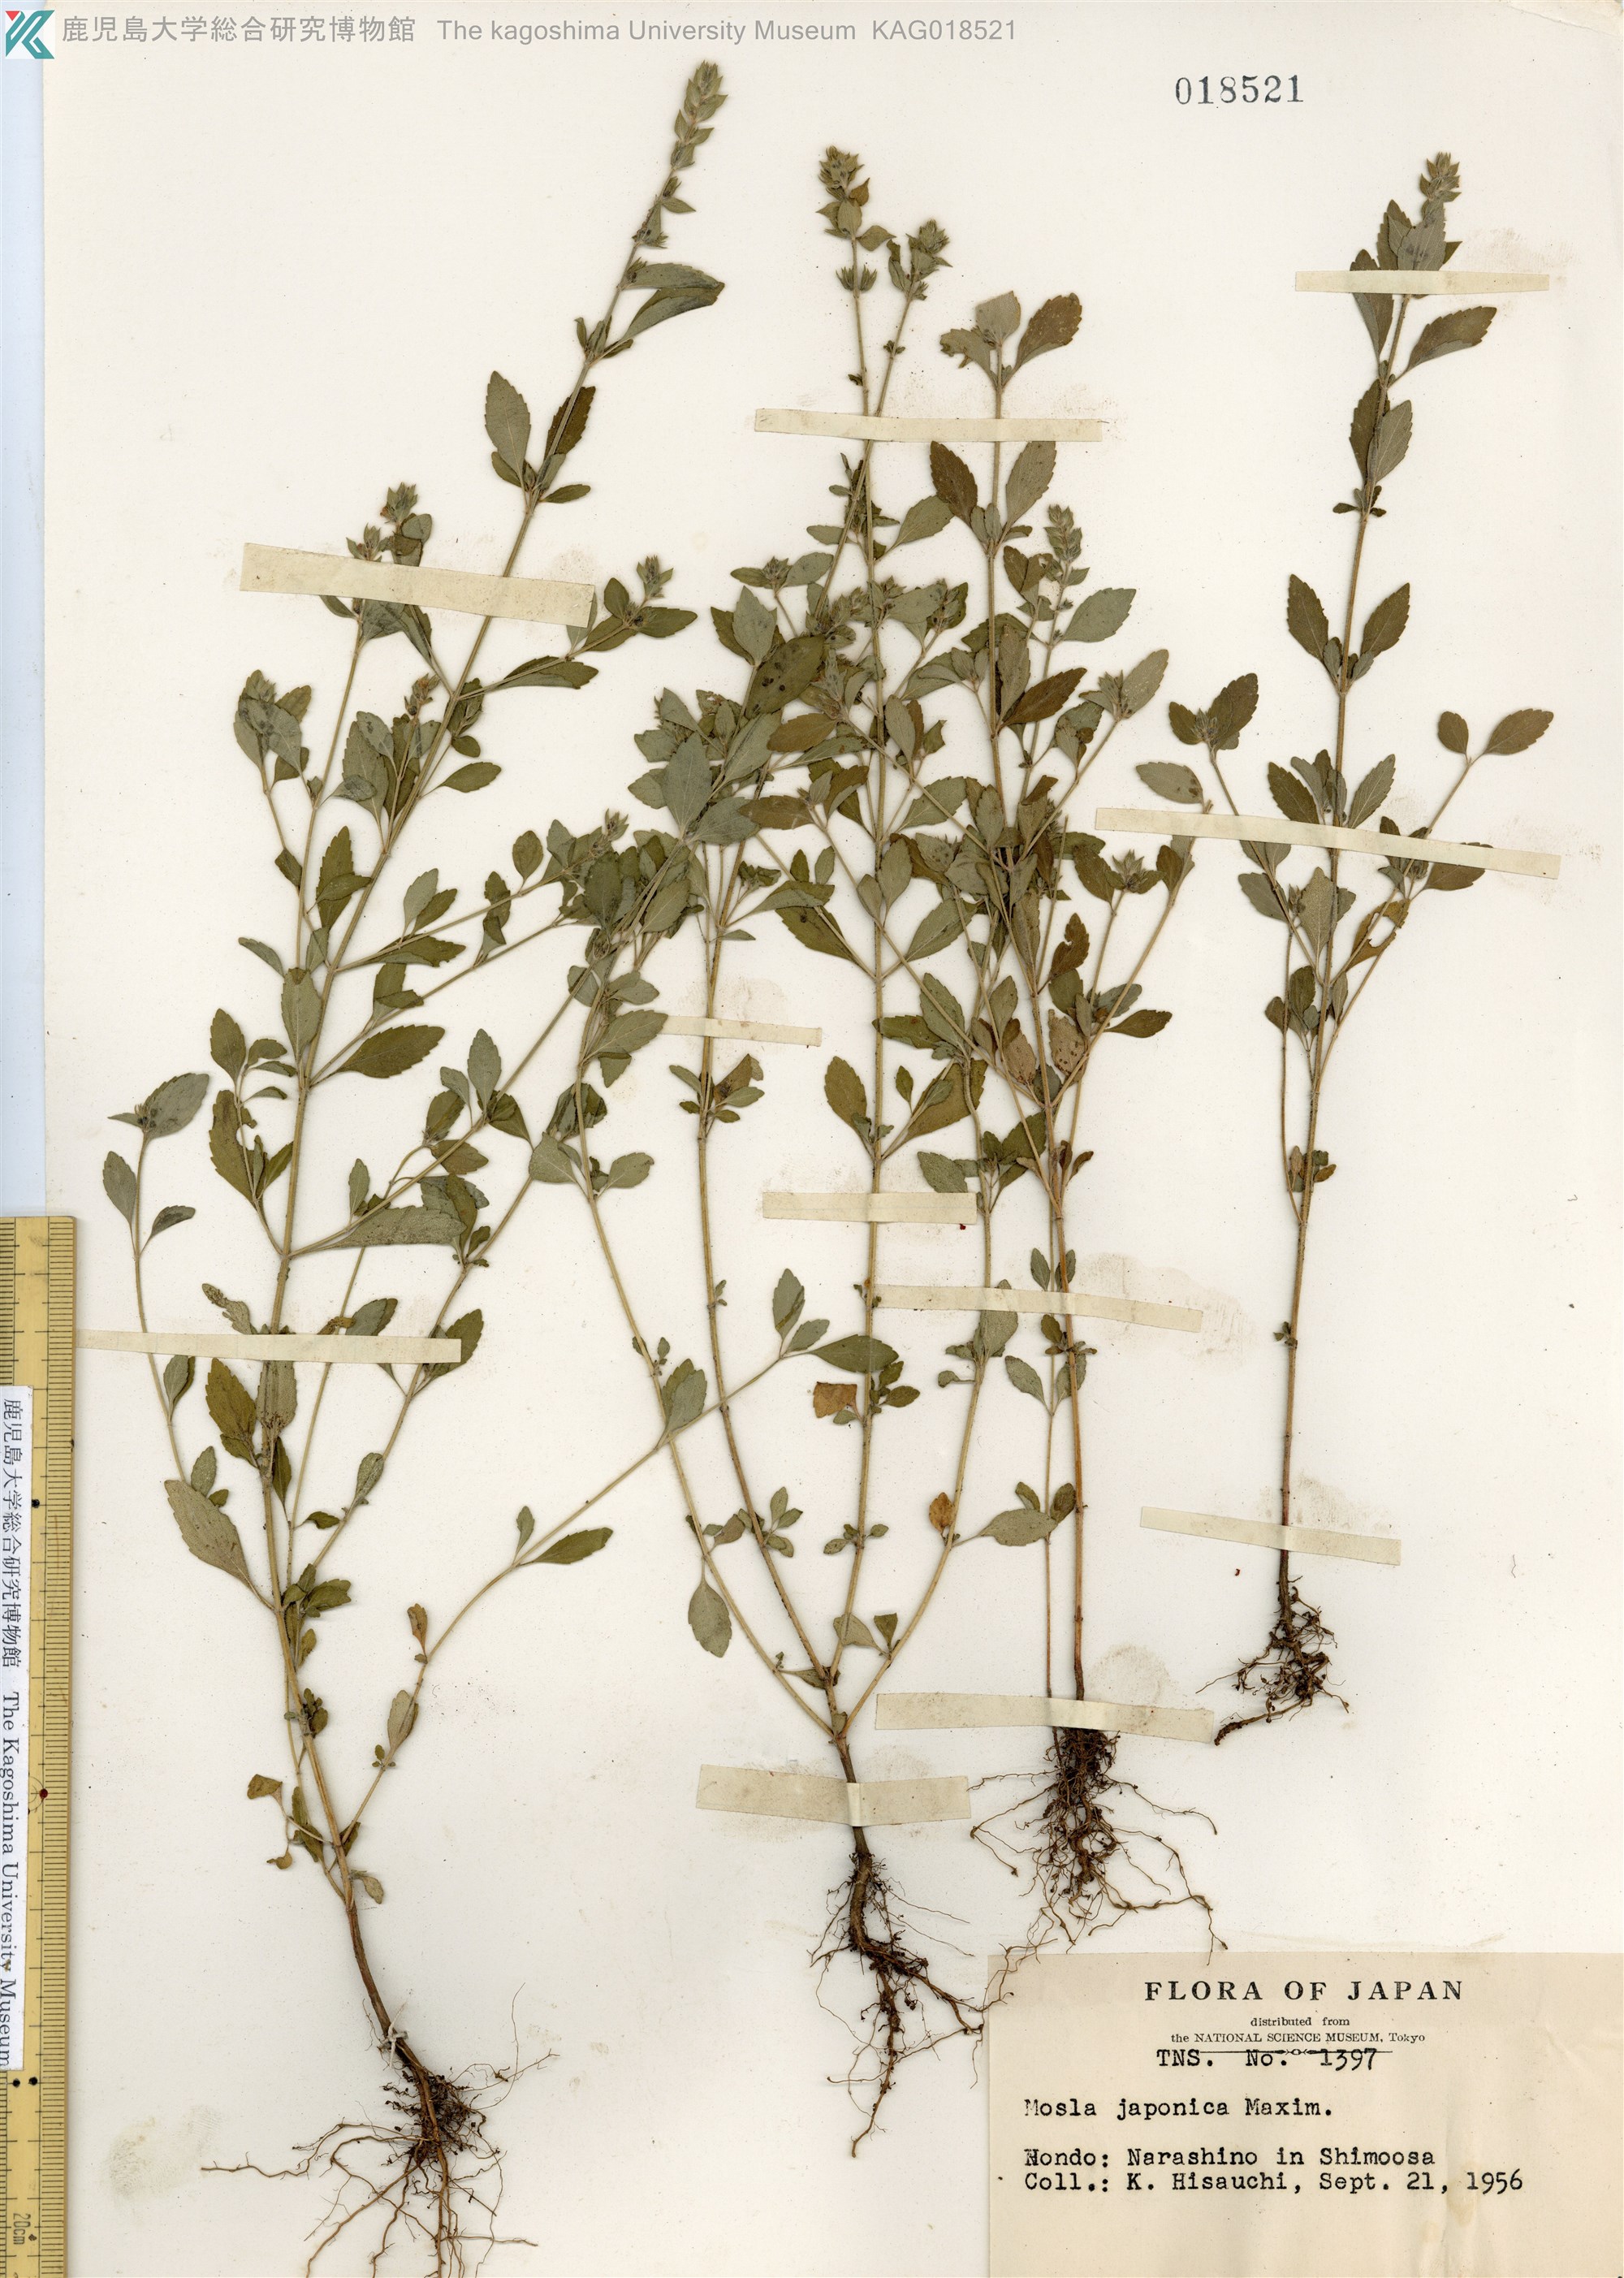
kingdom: Plantae
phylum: Tracheophyta
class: Magnoliopsida
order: Lamiales
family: Lamiaceae
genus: Mosla
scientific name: Mosla japonica
